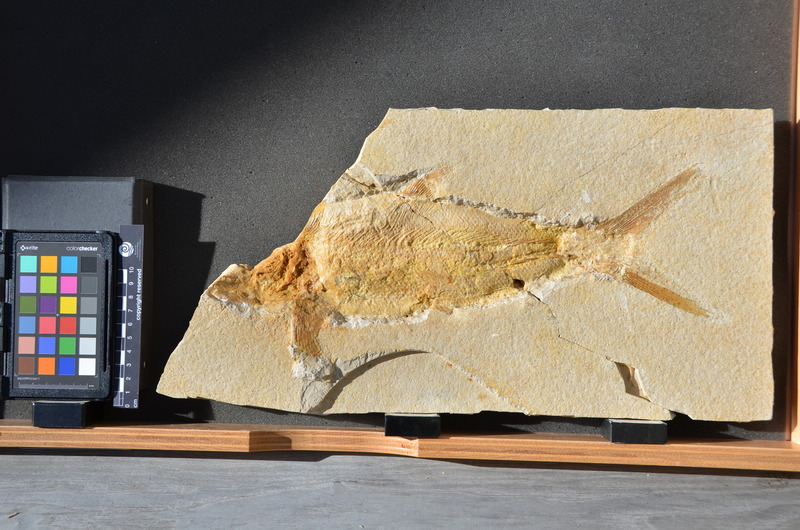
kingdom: Animalia
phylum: Chordata
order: Amiiformes
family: Caturidae
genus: Caturus
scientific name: Caturus furcatus
